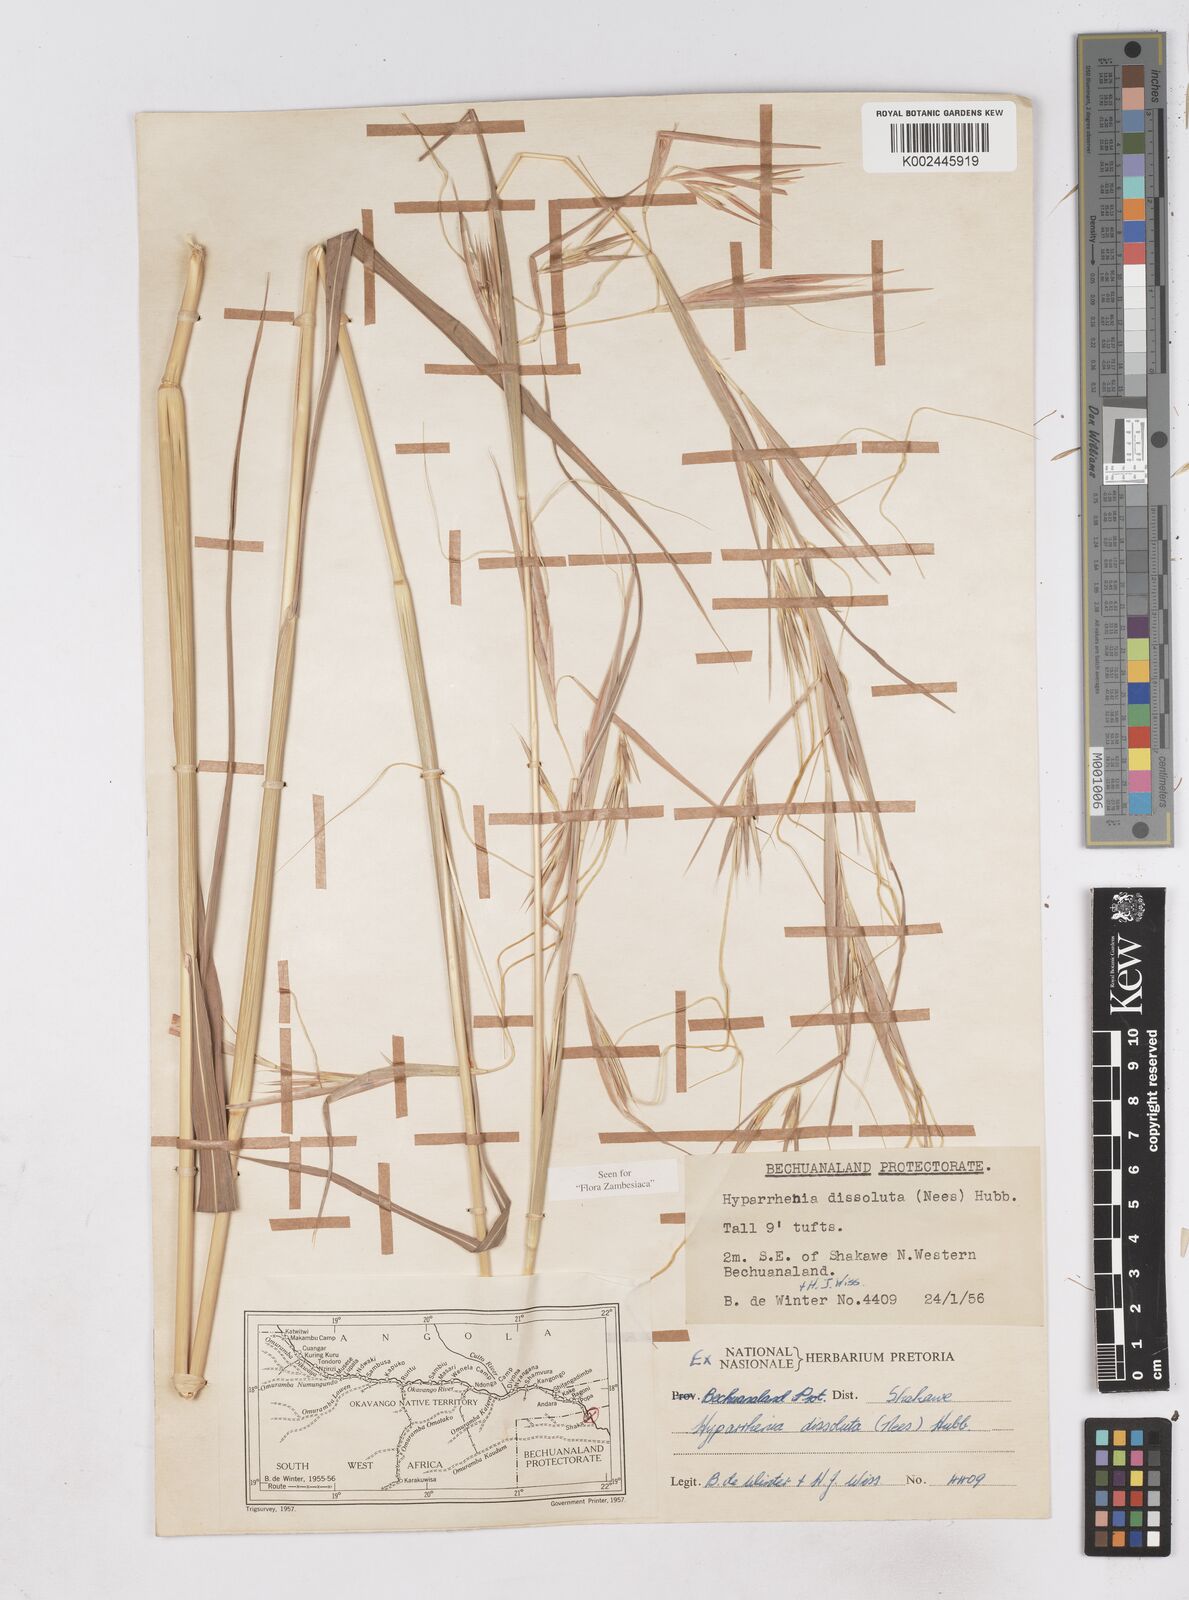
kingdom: Plantae
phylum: Tracheophyta
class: Liliopsida
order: Poales
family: Poaceae
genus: Hyperthelia
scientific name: Hyperthelia dissoluta
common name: Yellow thatching grass
